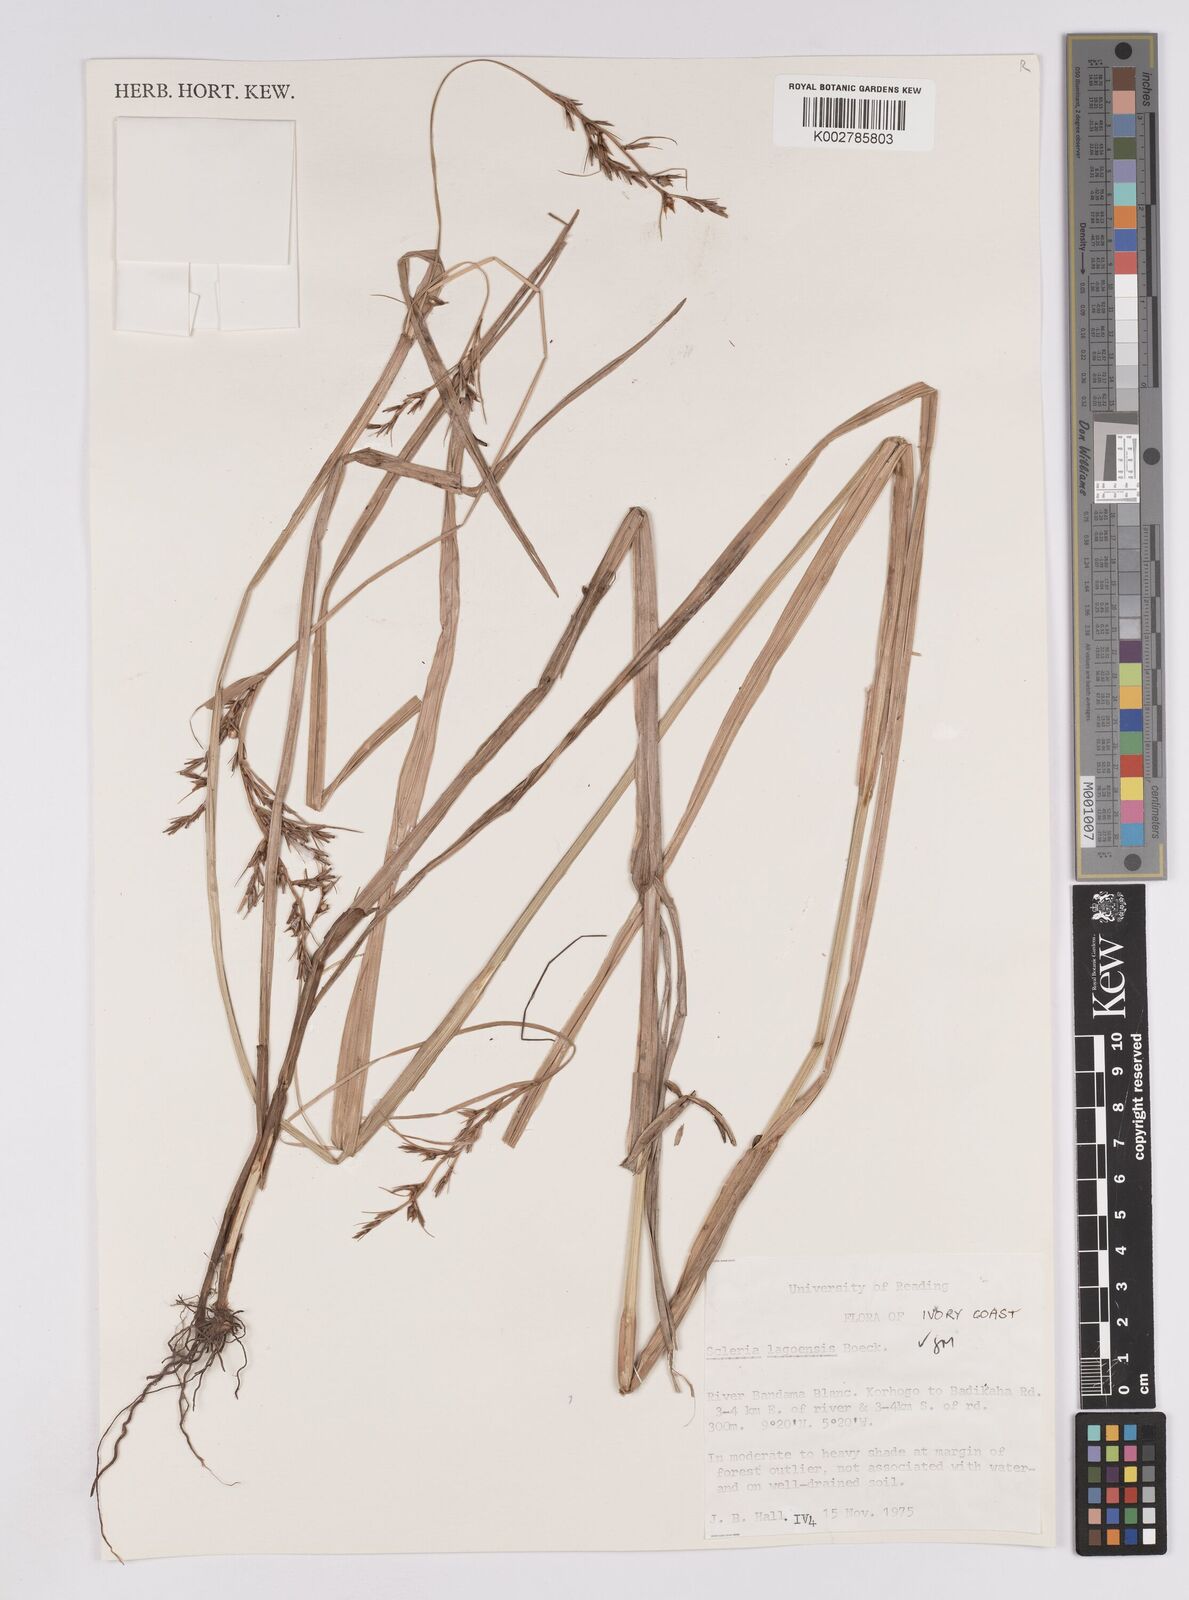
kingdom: Plantae
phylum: Tracheophyta
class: Liliopsida
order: Poales
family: Cyperaceae
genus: Scleria
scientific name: Scleria lagoensis
